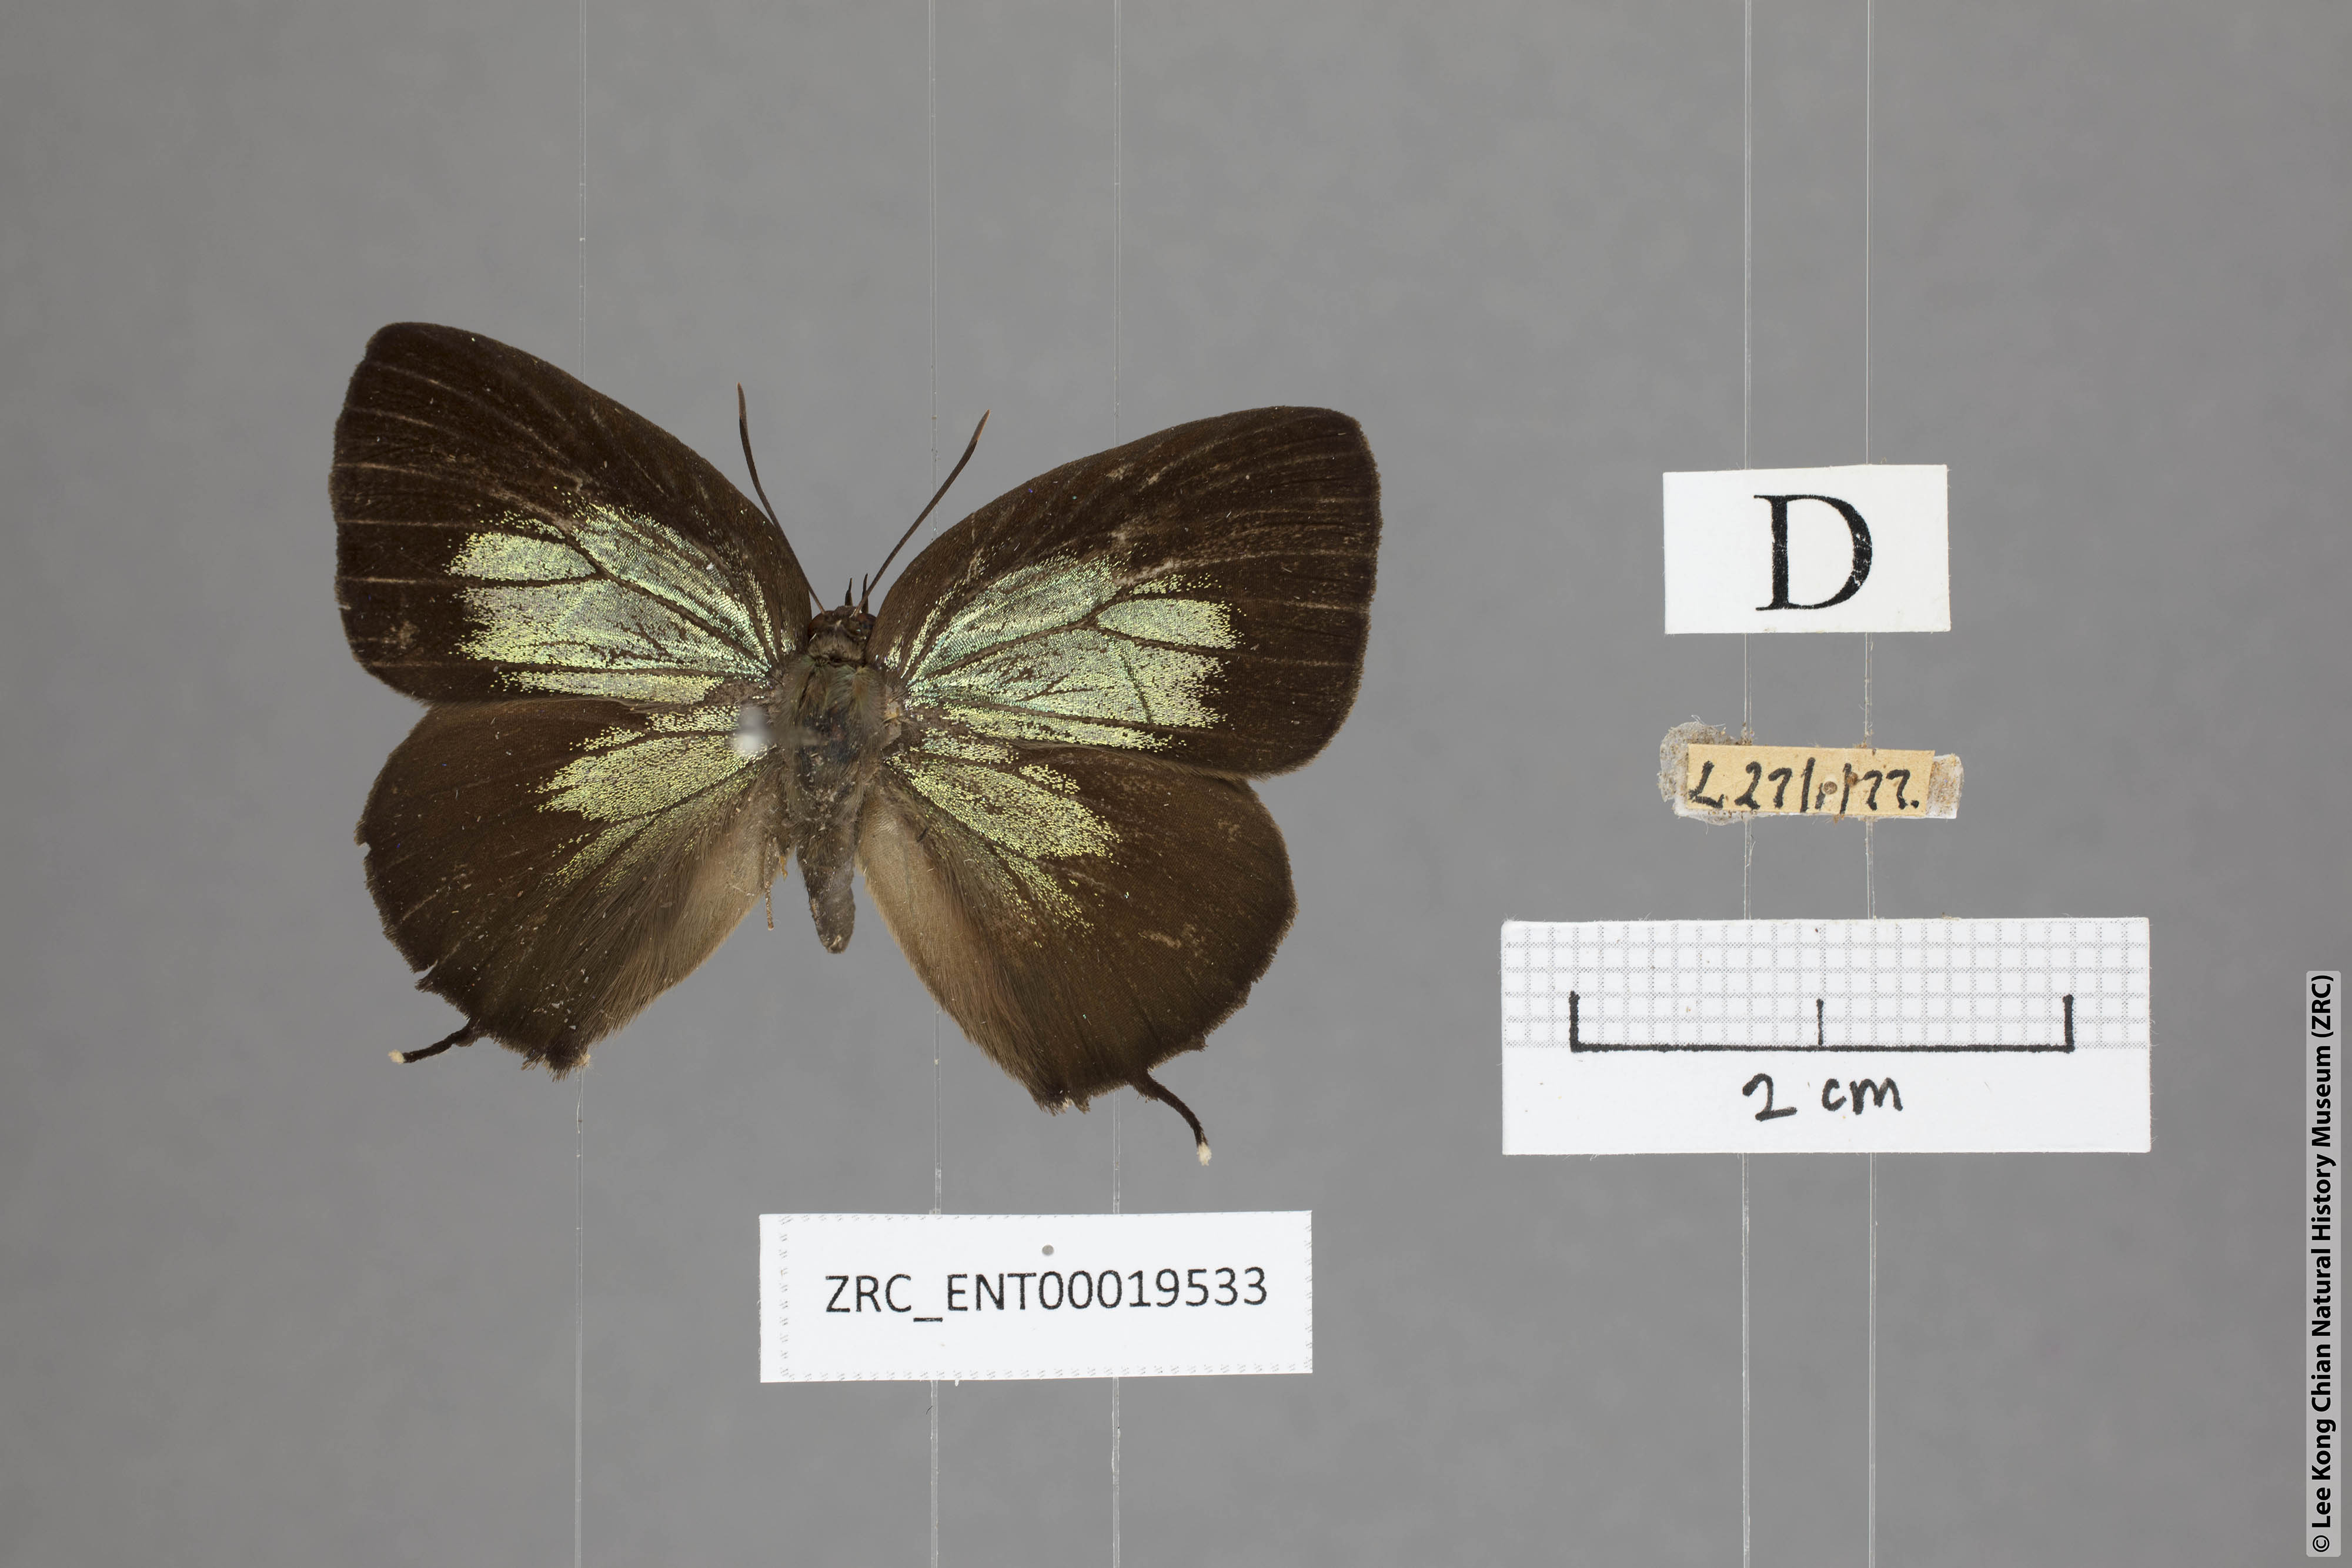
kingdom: Animalia
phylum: Arthropoda
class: Insecta
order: Lepidoptera
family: Lycaenidae
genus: Arhopala
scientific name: Arhopala horsfieldi
